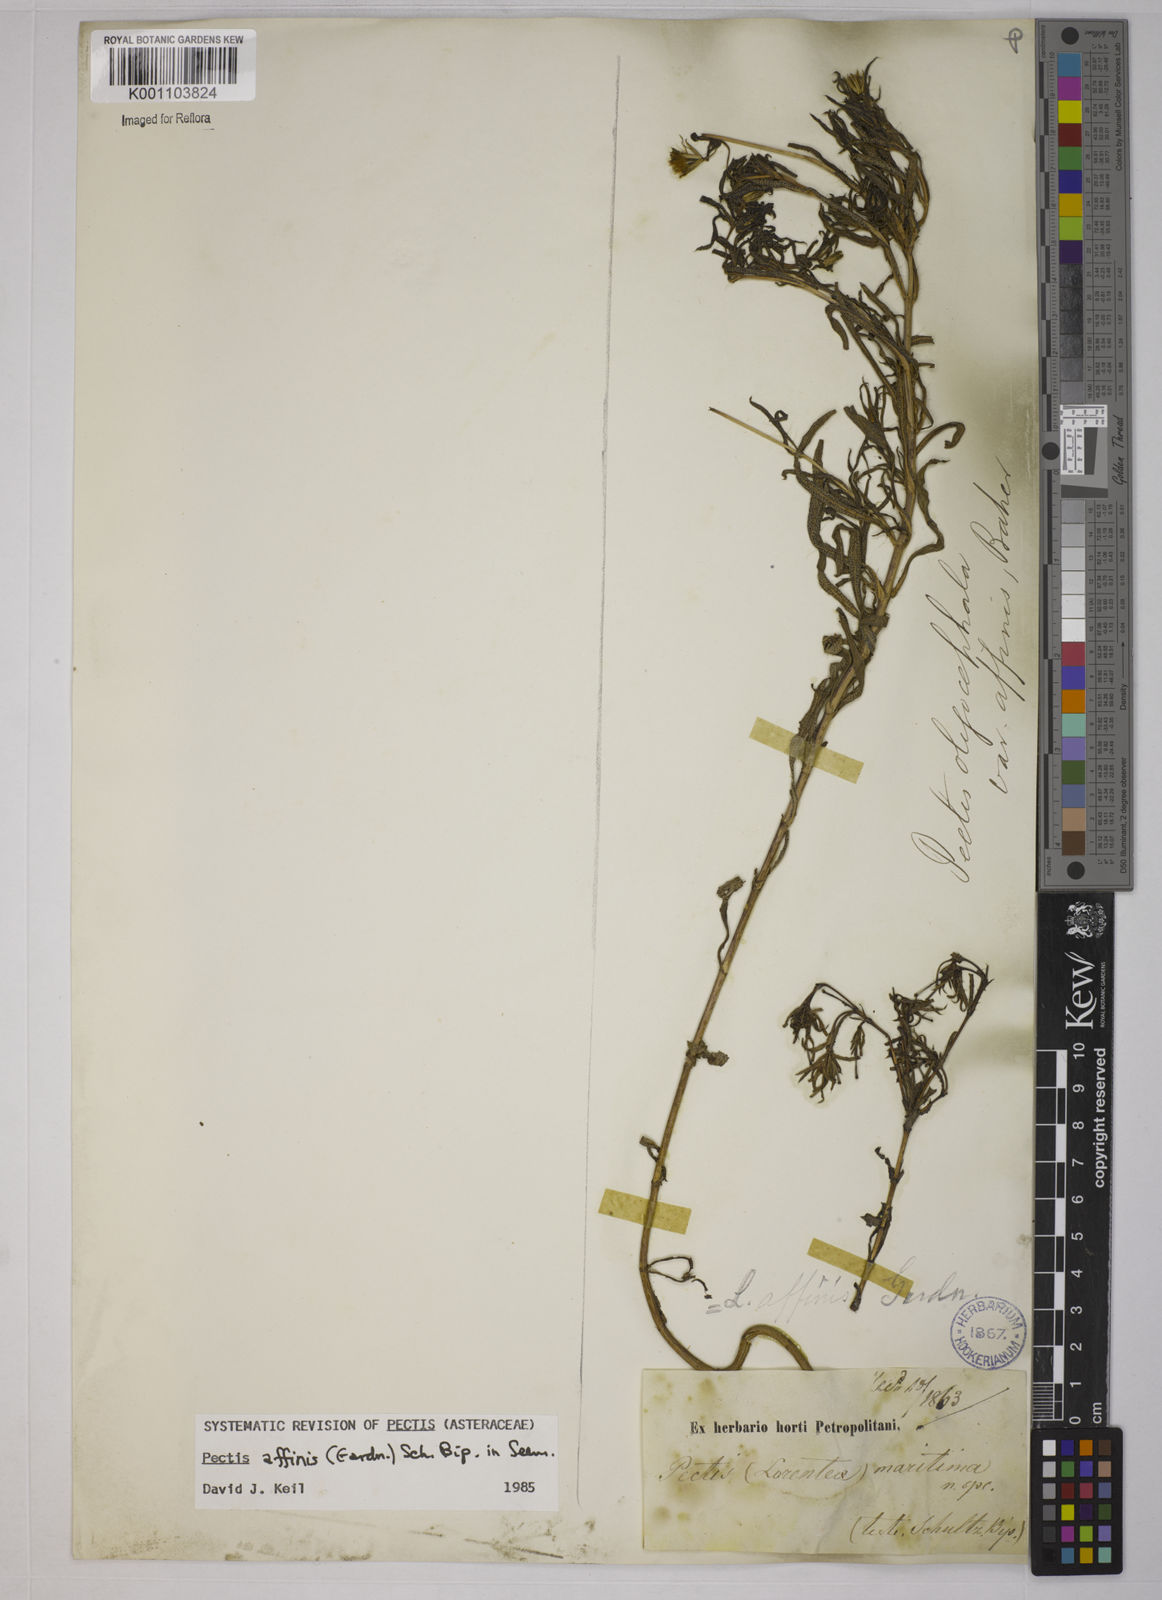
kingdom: Plantae
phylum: Tracheophyta
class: Magnoliopsida
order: Asterales
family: Asteraceae
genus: Pectis
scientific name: Pectis oligocephala
